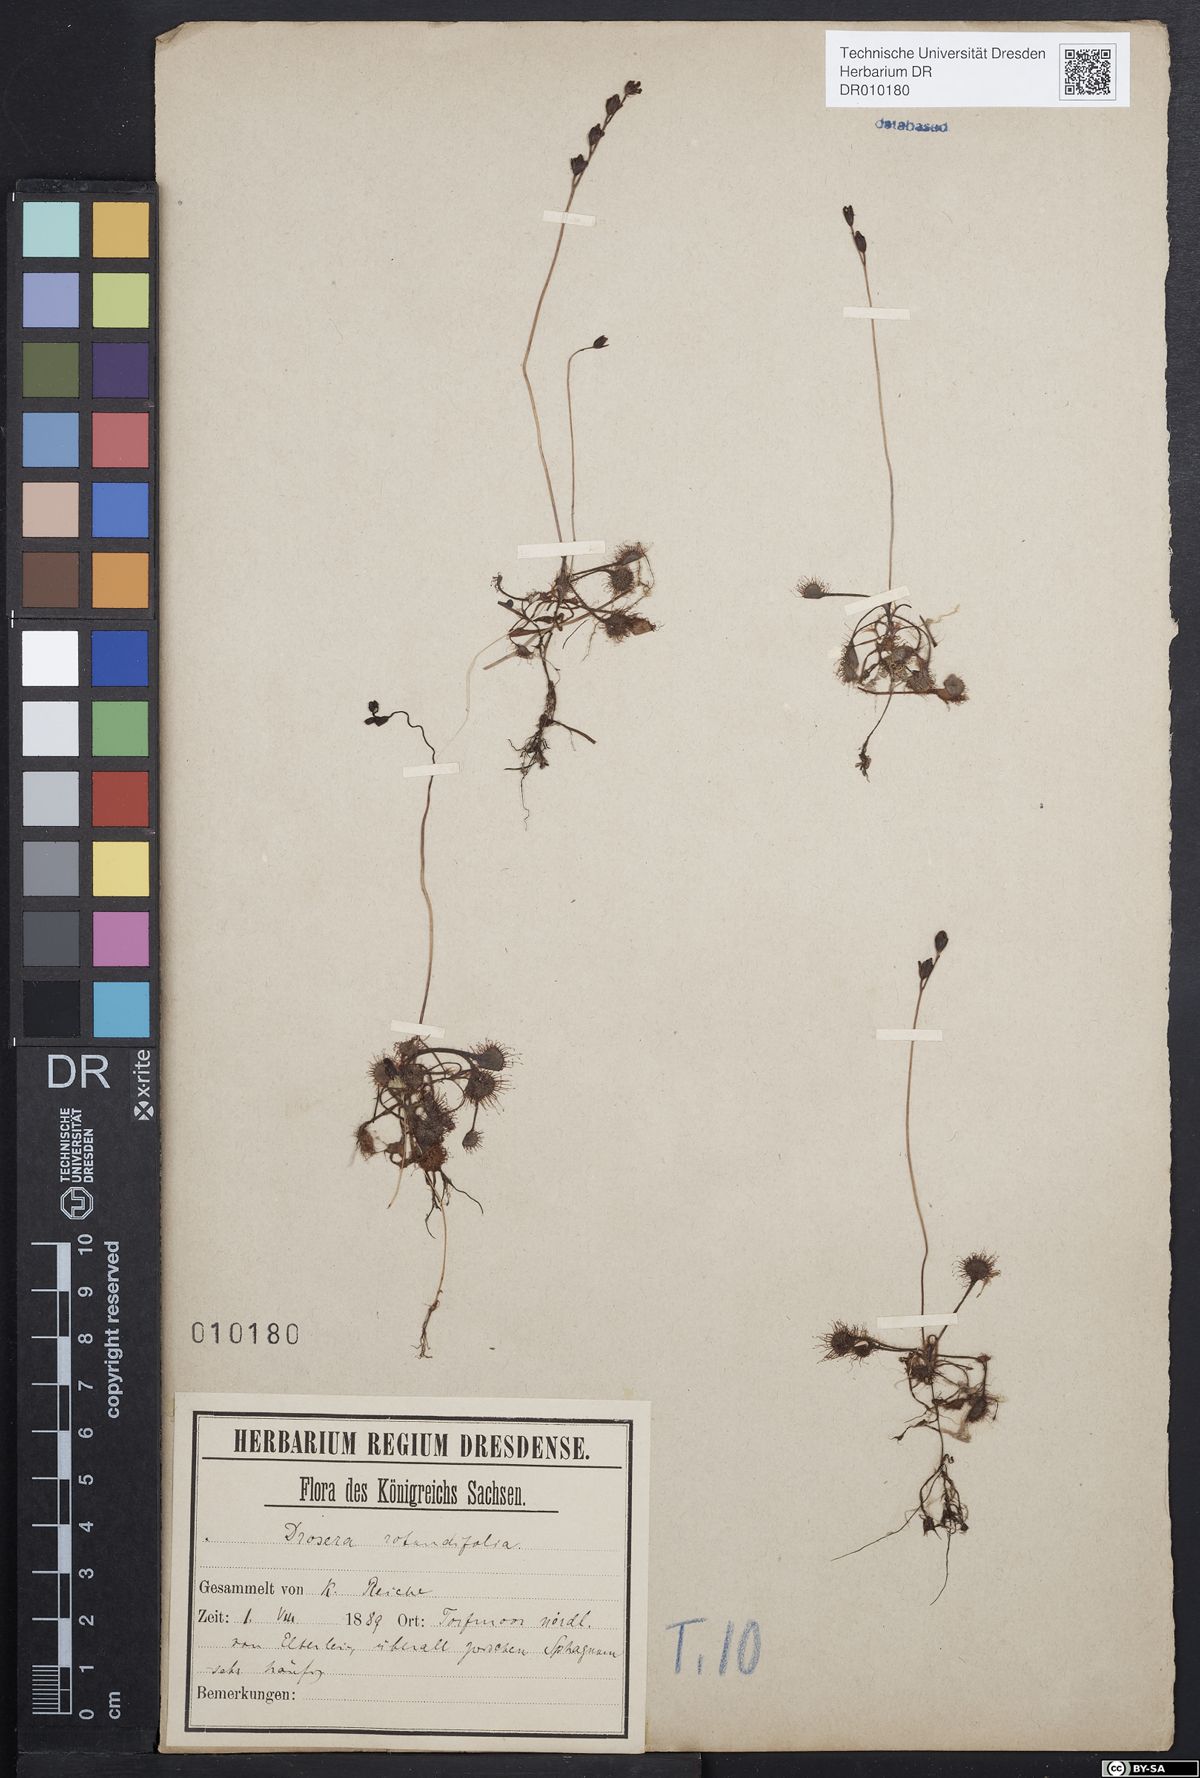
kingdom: Plantae
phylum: Tracheophyta
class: Magnoliopsida
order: Caryophyllales
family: Droseraceae
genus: Drosera
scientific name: Drosera rotundifolia
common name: Round-leaved sundew
